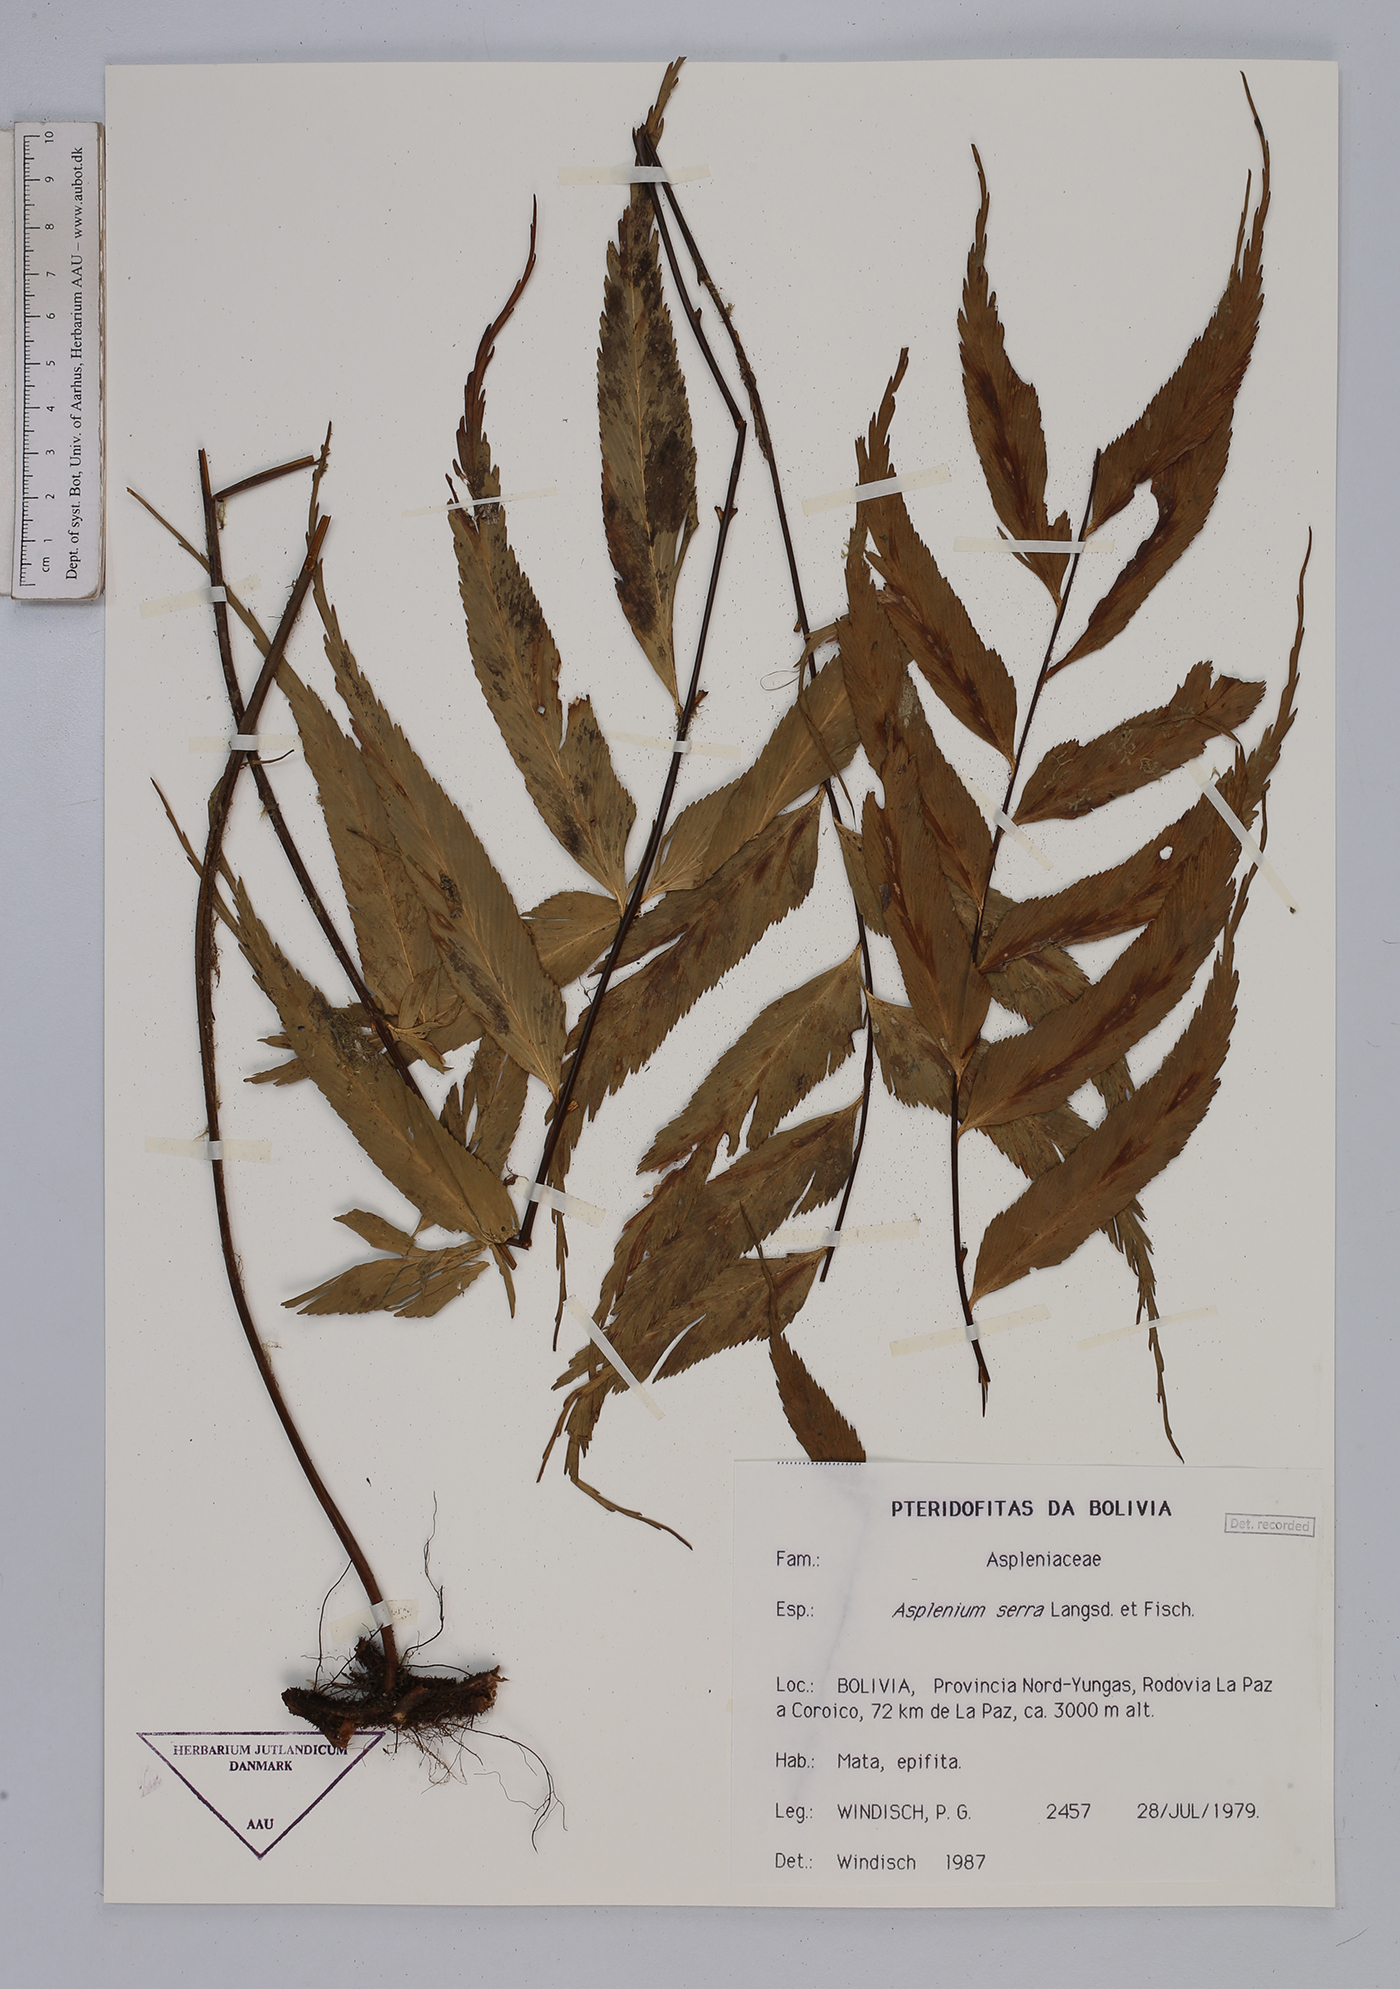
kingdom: Plantae
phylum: Tracheophyta
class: Polypodiopsida
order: Polypodiales
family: Aspleniaceae
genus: Asplenium
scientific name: Asplenium serra
